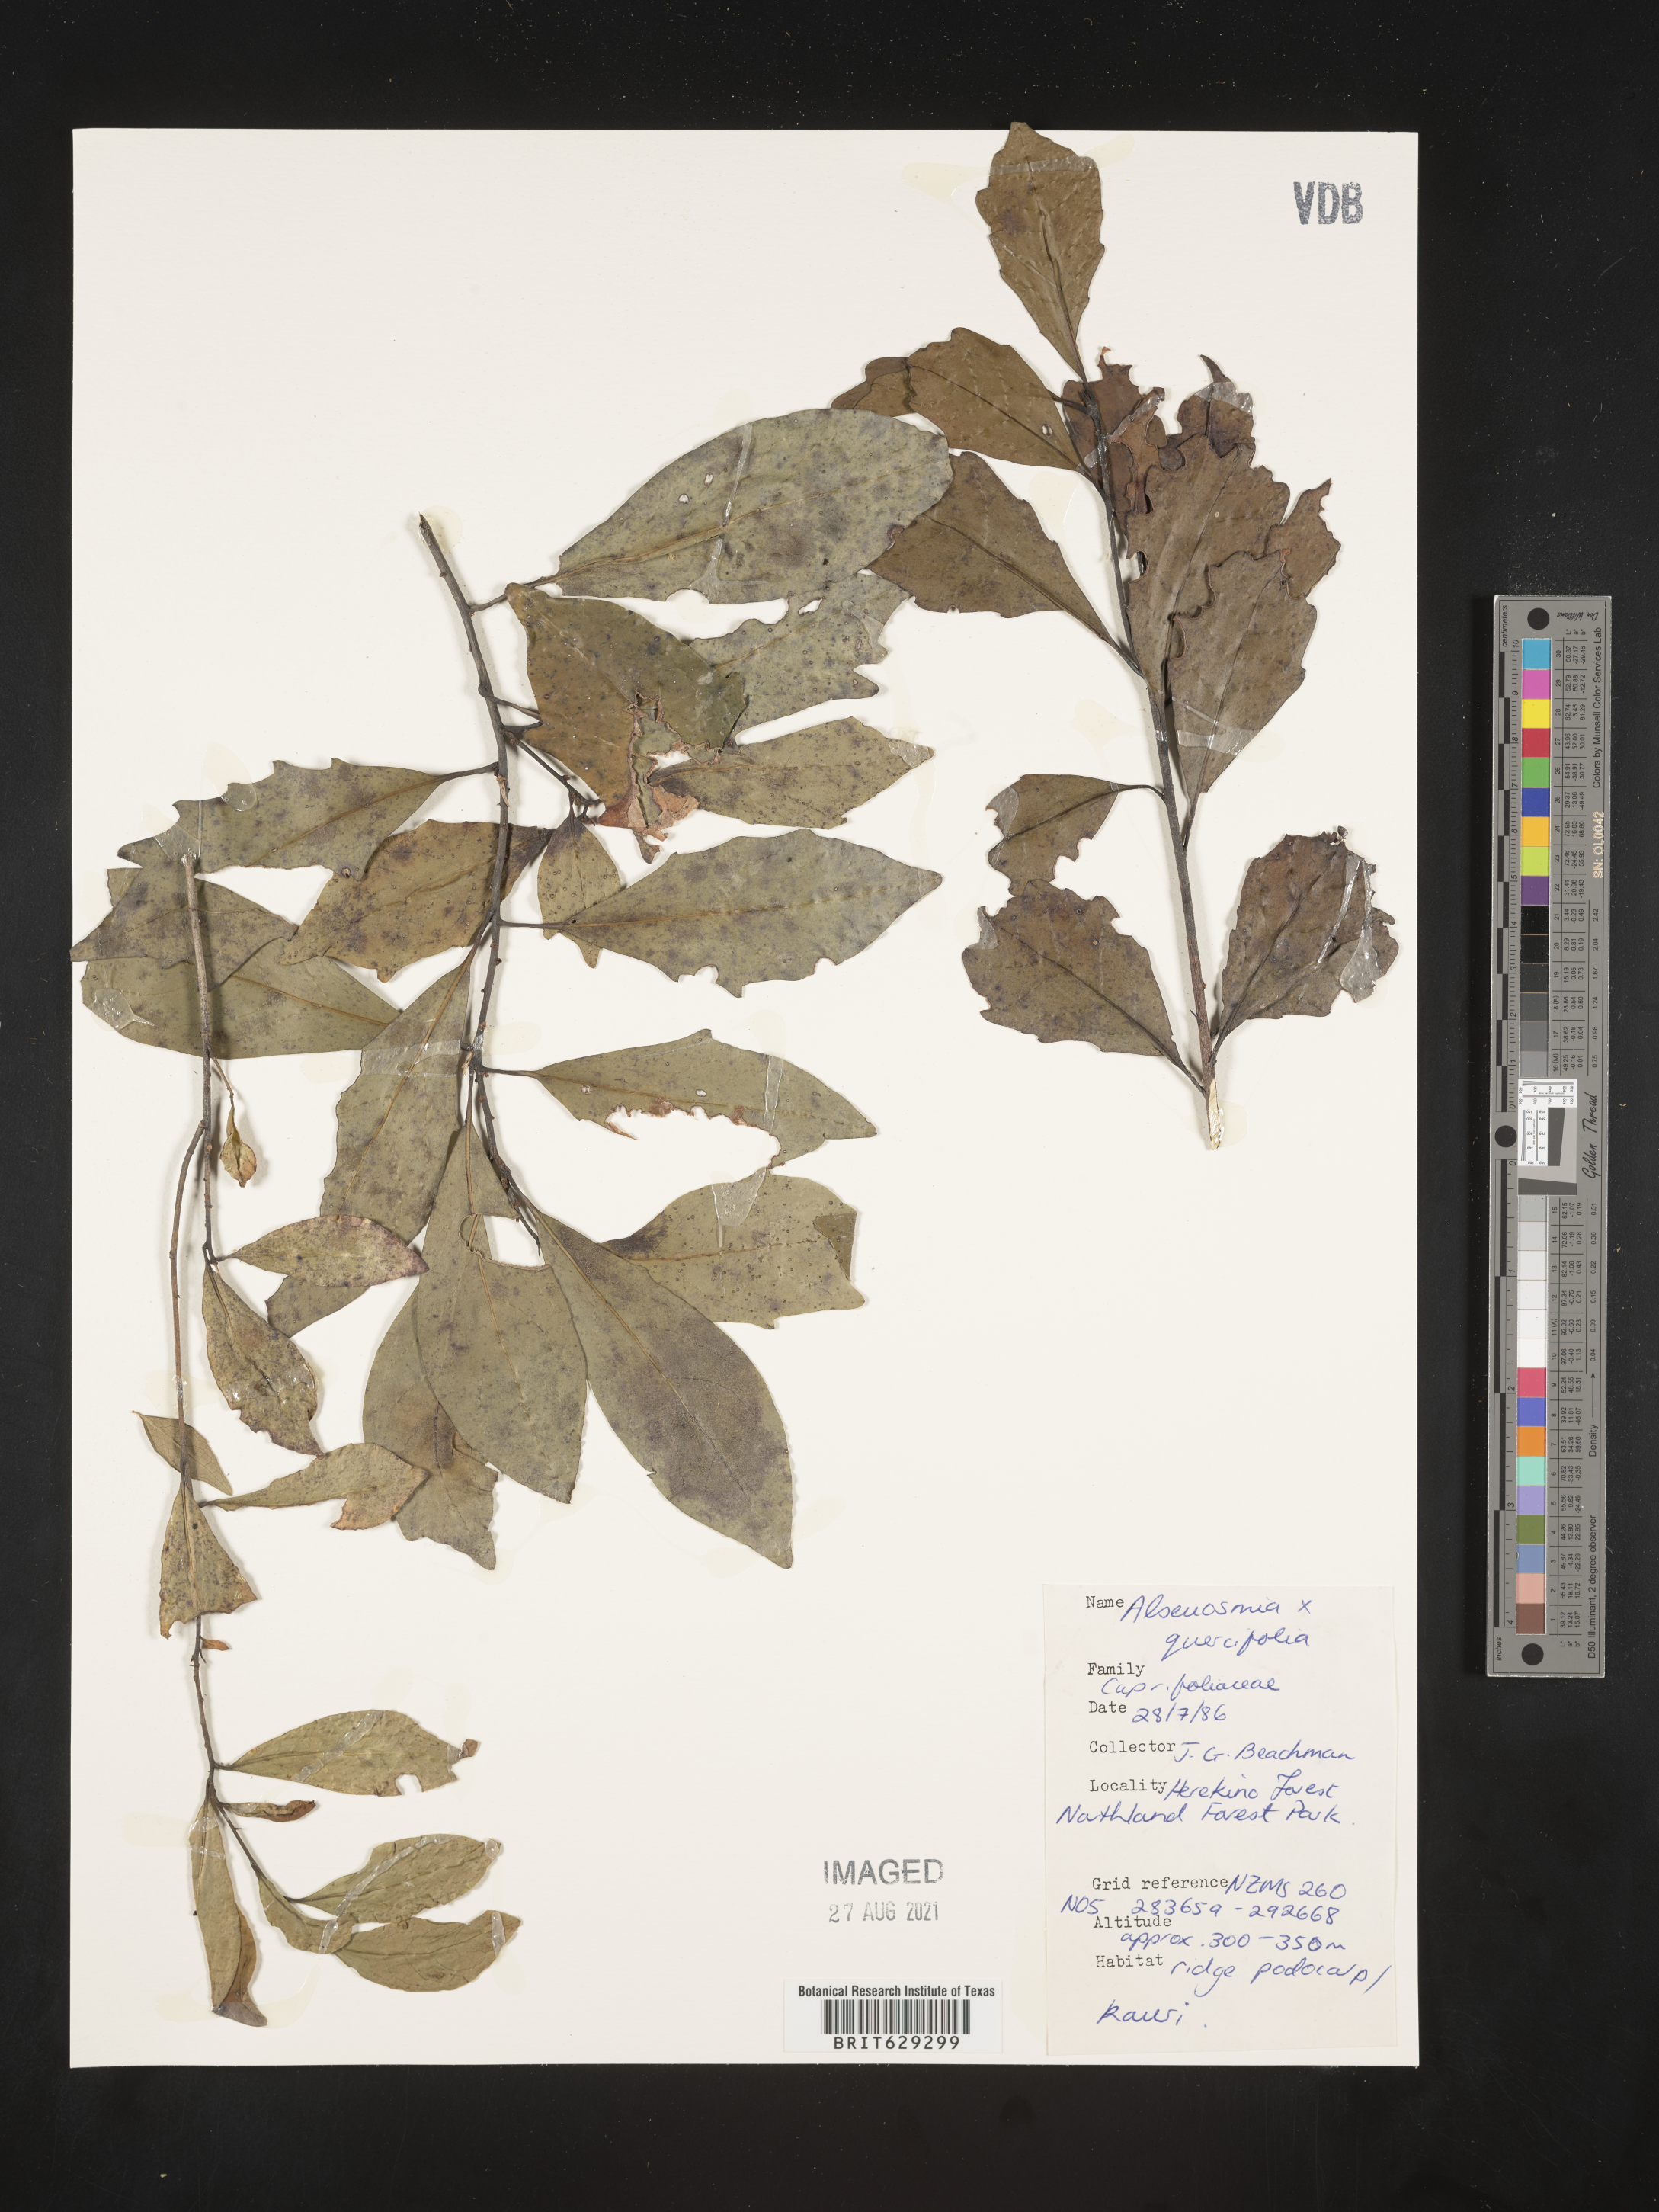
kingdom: Plantae
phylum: Tracheophyta
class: Magnoliopsida
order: Asterales
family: Alseuosmiaceae
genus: Alseuosmia
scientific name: Alseuosmia quercifolia
